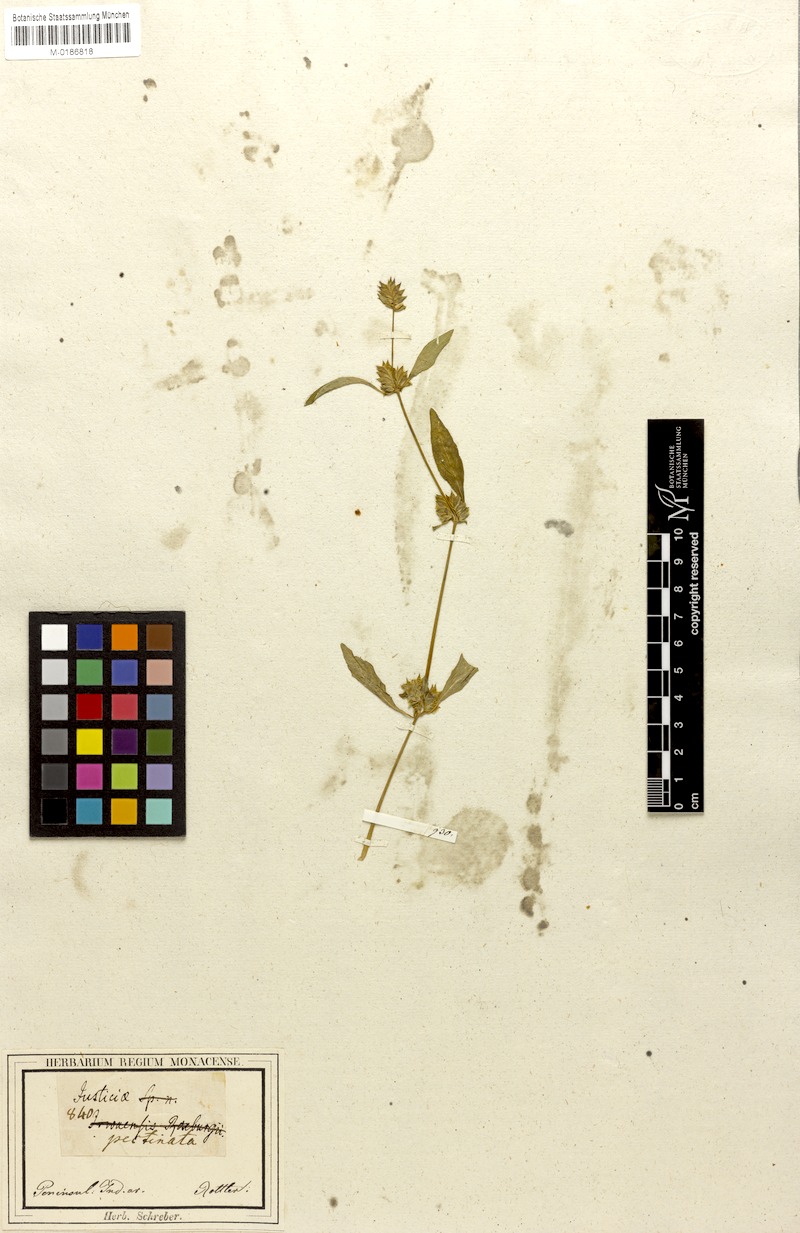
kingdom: Plantae
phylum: Tracheophyta
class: Magnoliopsida
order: Lamiales
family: Acanthaceae
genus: Rungia
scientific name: Rungia pectinata
